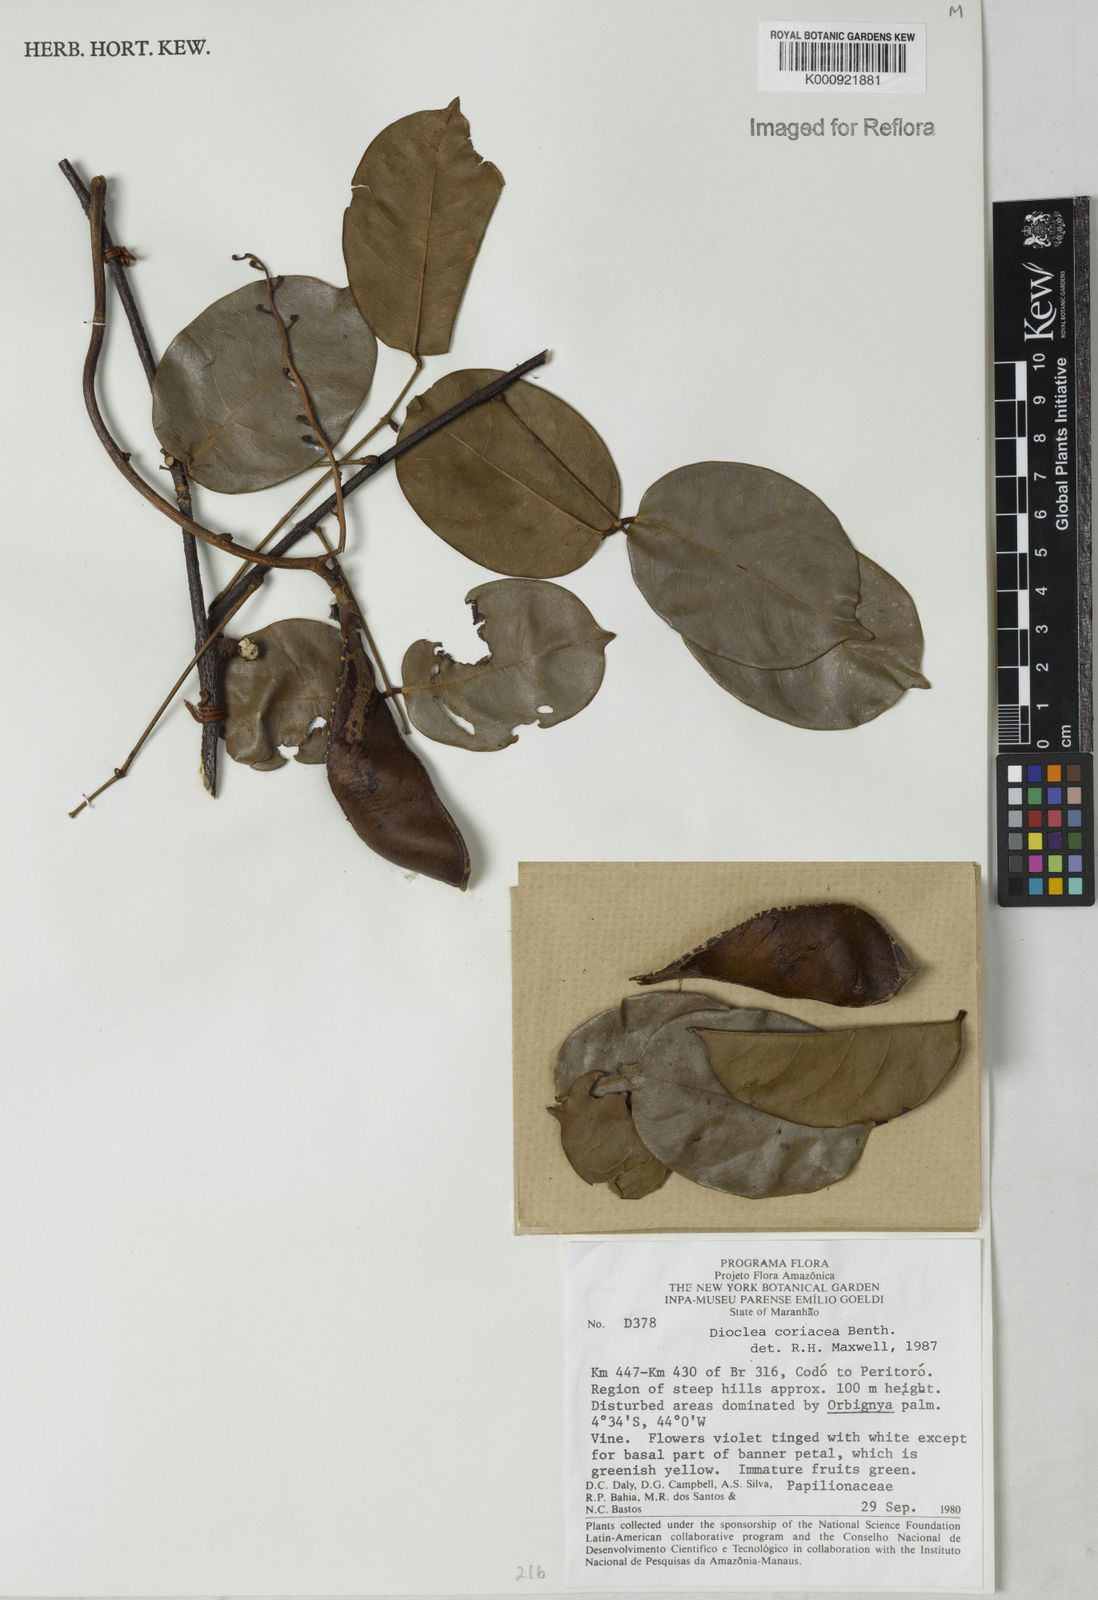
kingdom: Plantae
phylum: Tracheophyta
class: Magnoliopsida
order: Fabales
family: Fabaceae
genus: Macropsychanthus
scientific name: Macropsychanthus coriaceus
